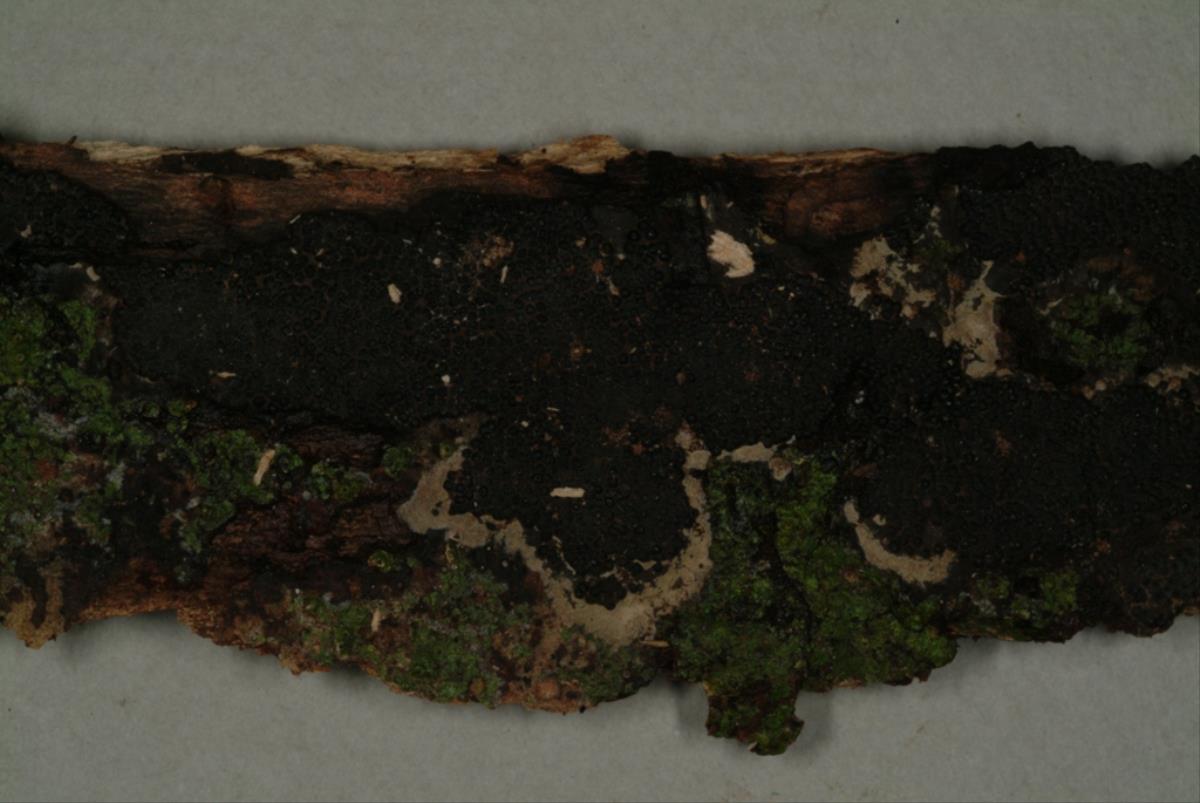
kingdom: Fungi
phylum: Ascomycota
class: Sordariomycetes
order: Xylariales
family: Hypoxylaceae
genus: Annulohypoxylon
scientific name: Annulohypoxylon moriforme
